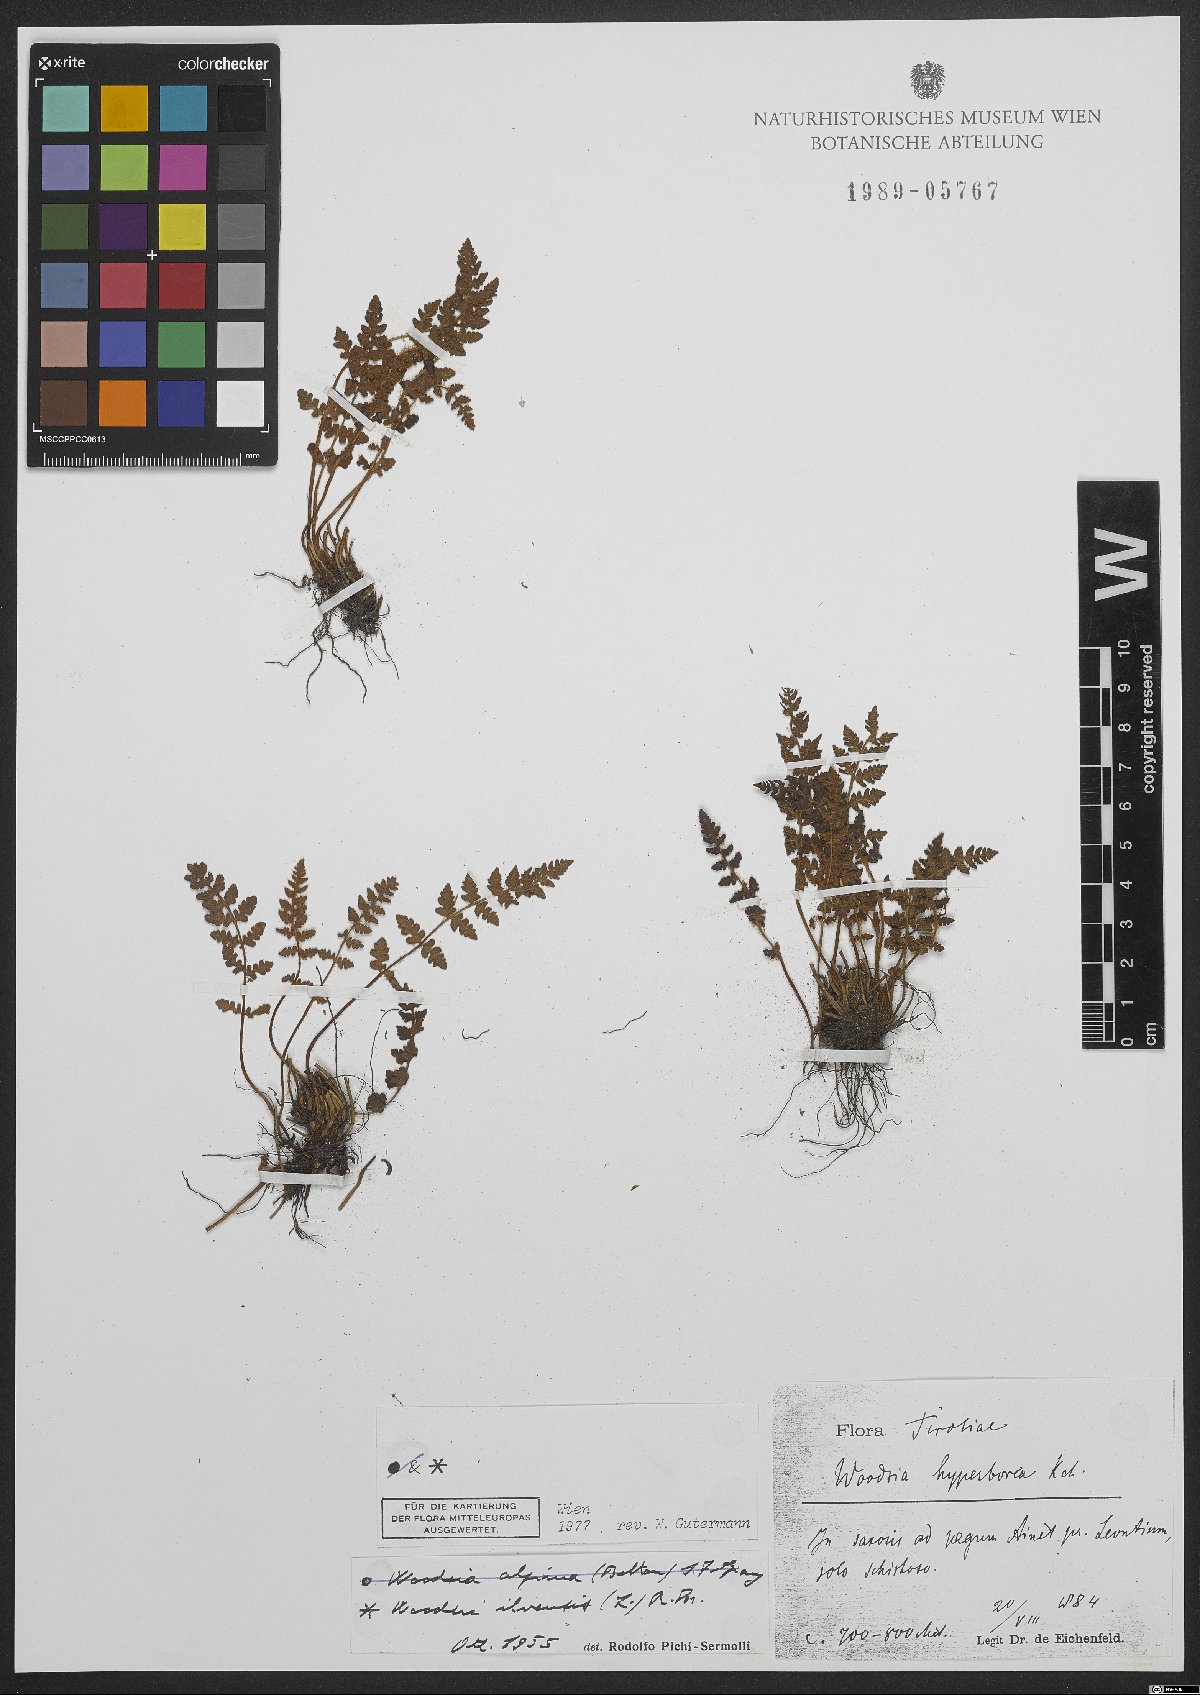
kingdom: Plantae
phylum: Tracheophyta
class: Polypodiopsida
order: Polypodiales
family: Woodsiaceae
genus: Woodsia
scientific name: Woodsia ilvensis
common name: Fragrant woodsia
